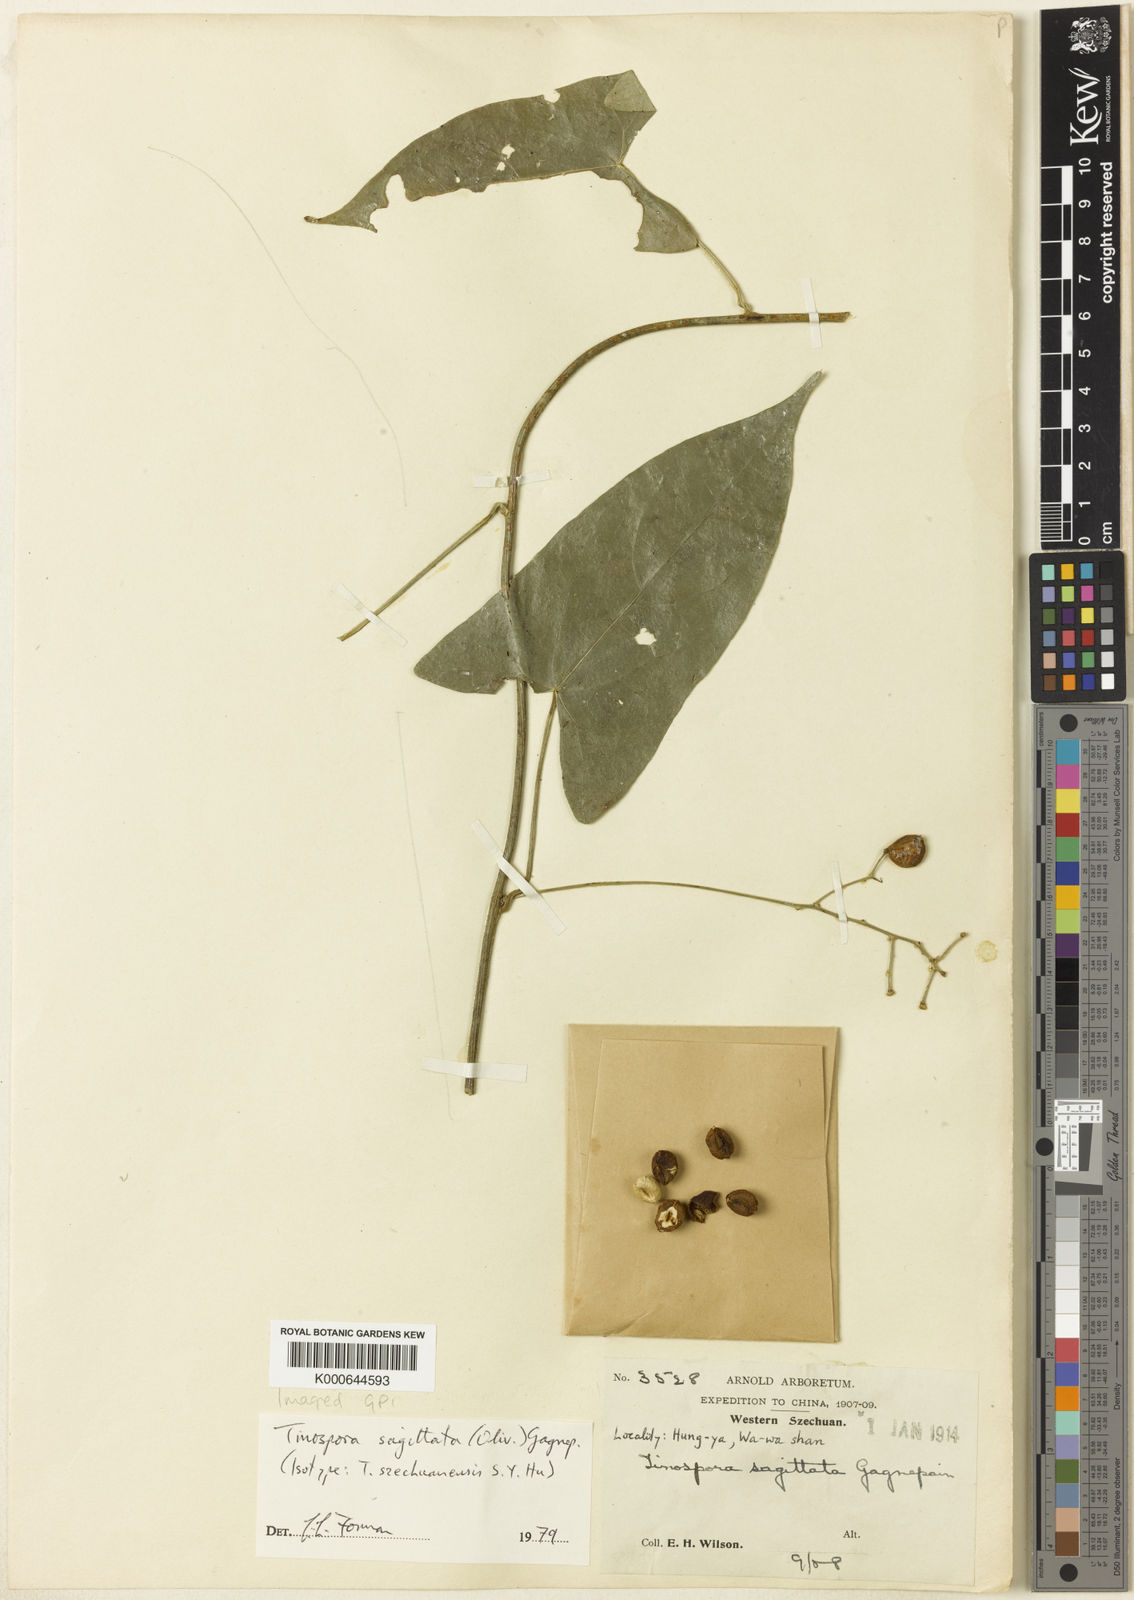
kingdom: Plantae
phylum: Tracheophyta
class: Magnoliopsida
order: Ranunculales
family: Menispermaceae
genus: Paratinospora
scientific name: Paratinospora sagittata
